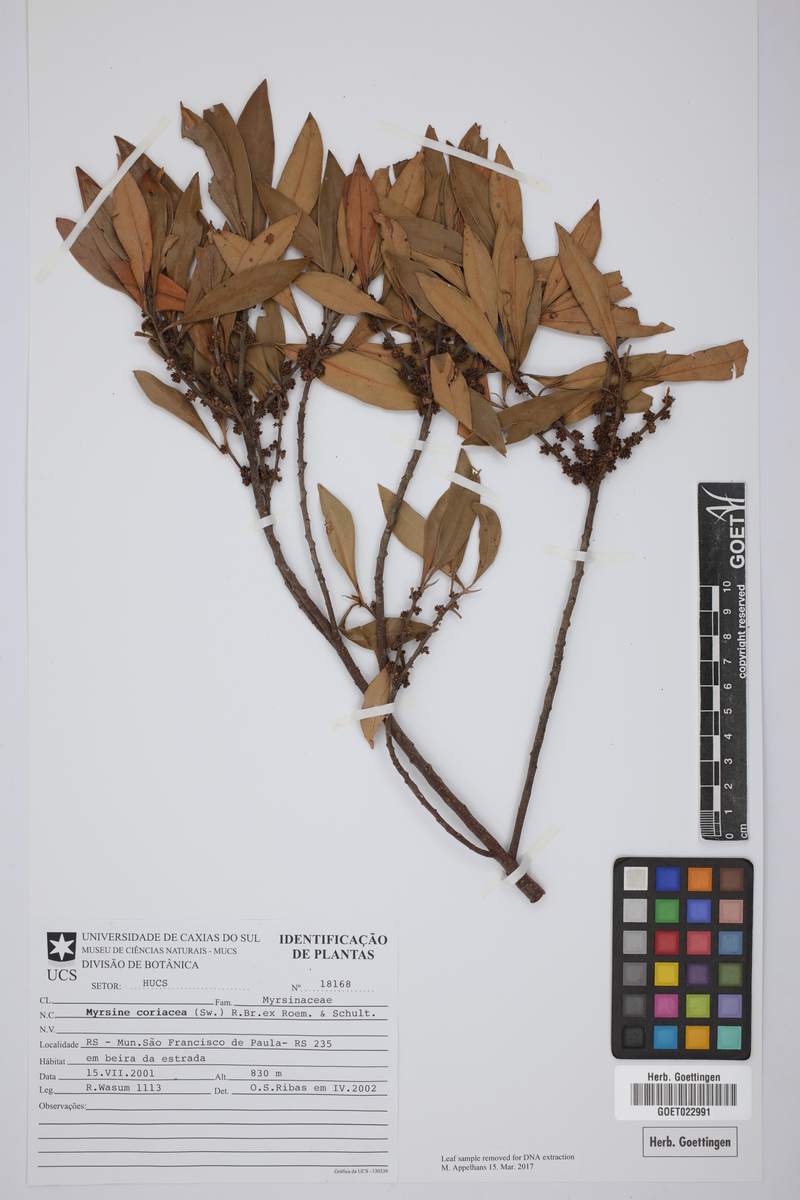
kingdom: Plantae
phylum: Tracheophyta
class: Magnoliopsida
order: Ericales
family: Primulaceae
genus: Myrsine
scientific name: Myrsine coriacea
